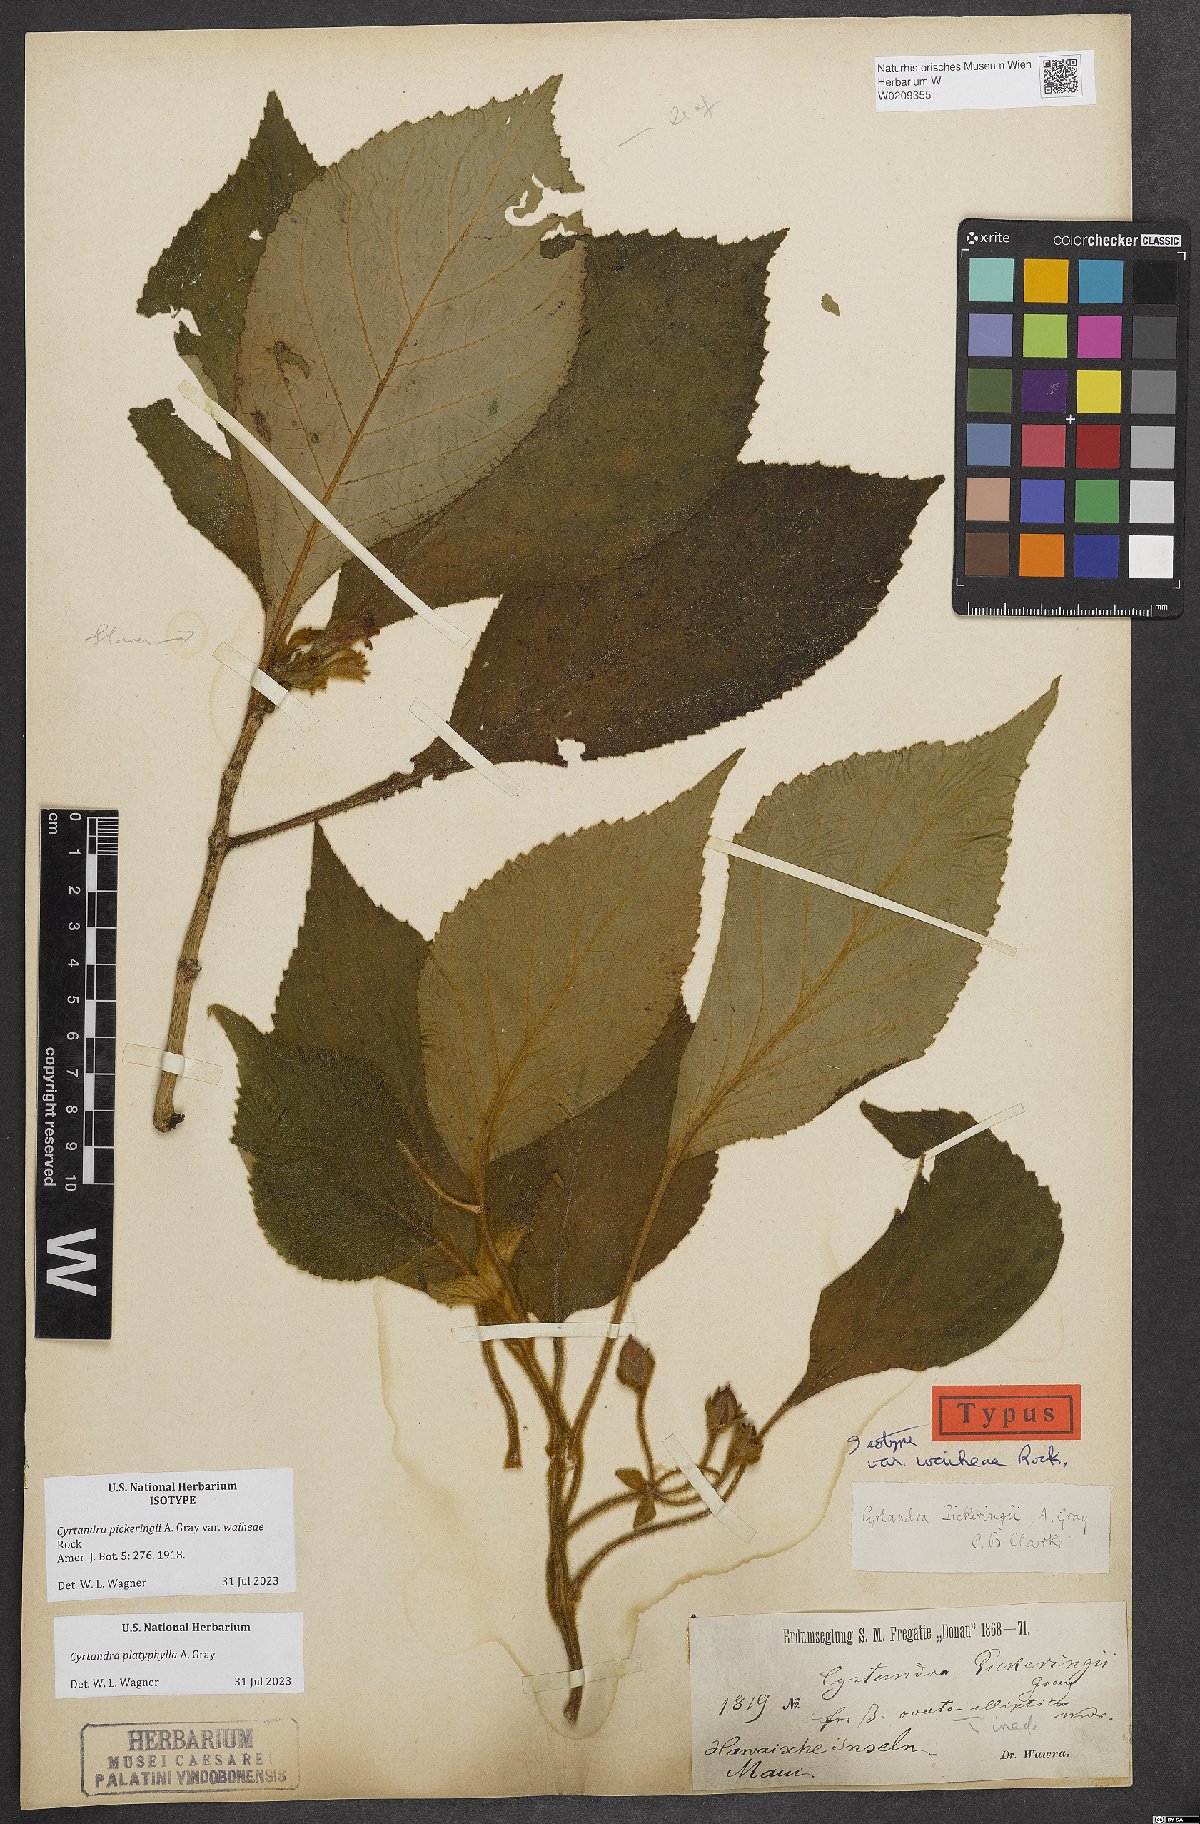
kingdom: Plantae
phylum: Tracheophyta
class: Magnoliopsida
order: Lamiales
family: Gesneriaceae
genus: Cyrtandra
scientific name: Cyrtandra platyphylla
